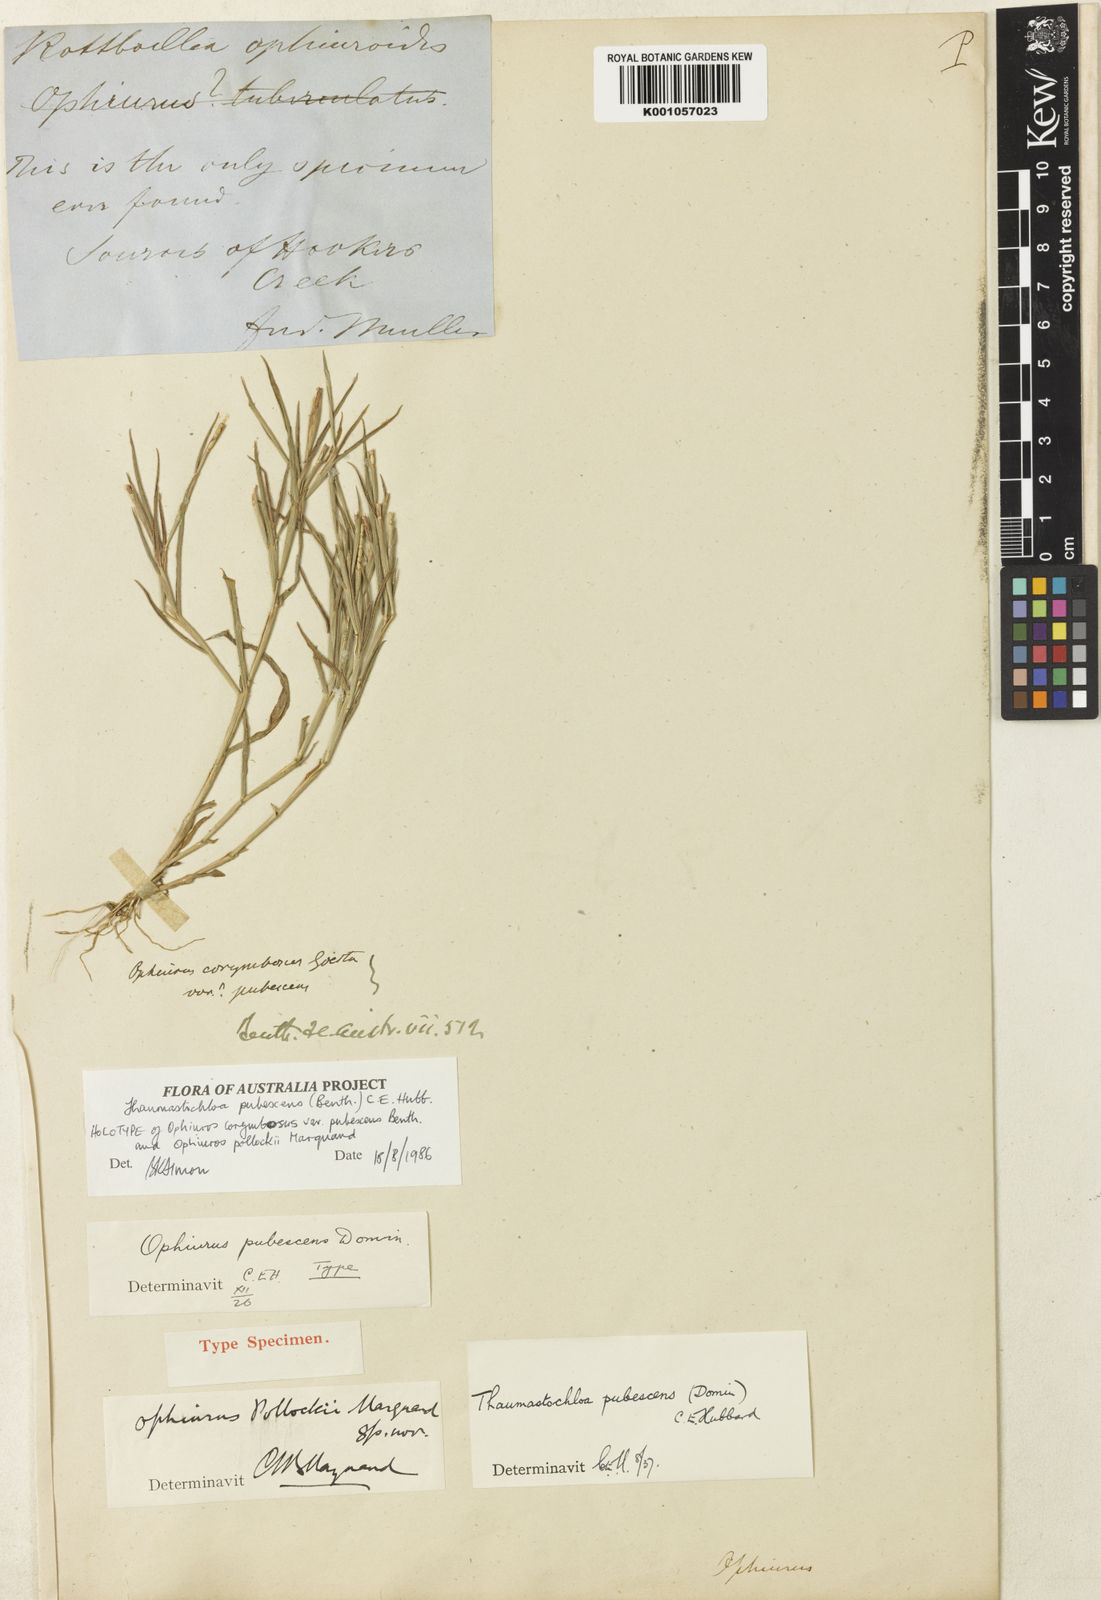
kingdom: Plantae
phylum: Tracheophyta
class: Liliopsida
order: Poales
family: Poaceae
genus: Thaumastochloa
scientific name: Thaumastochloa pubescens
